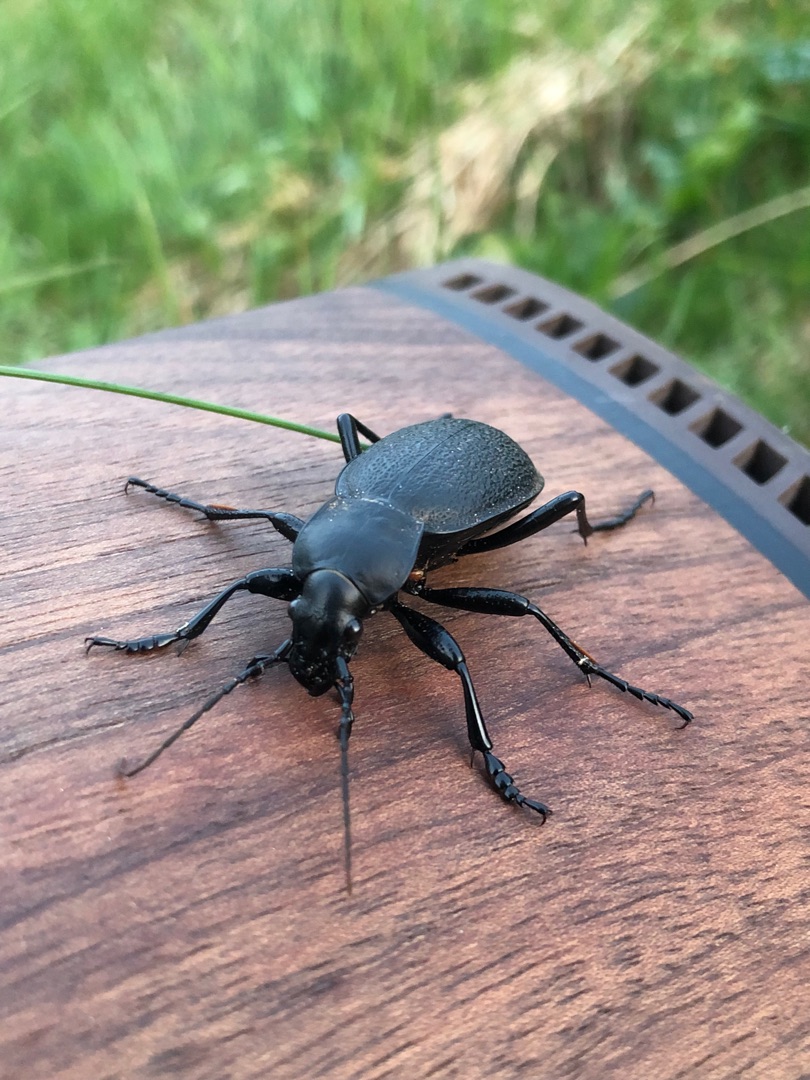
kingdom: Animalia
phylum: Arthropoda
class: Insecta
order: Coleoptera
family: Carabidae
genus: Carabus
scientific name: Carabus coriaceus
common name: Læderløber
